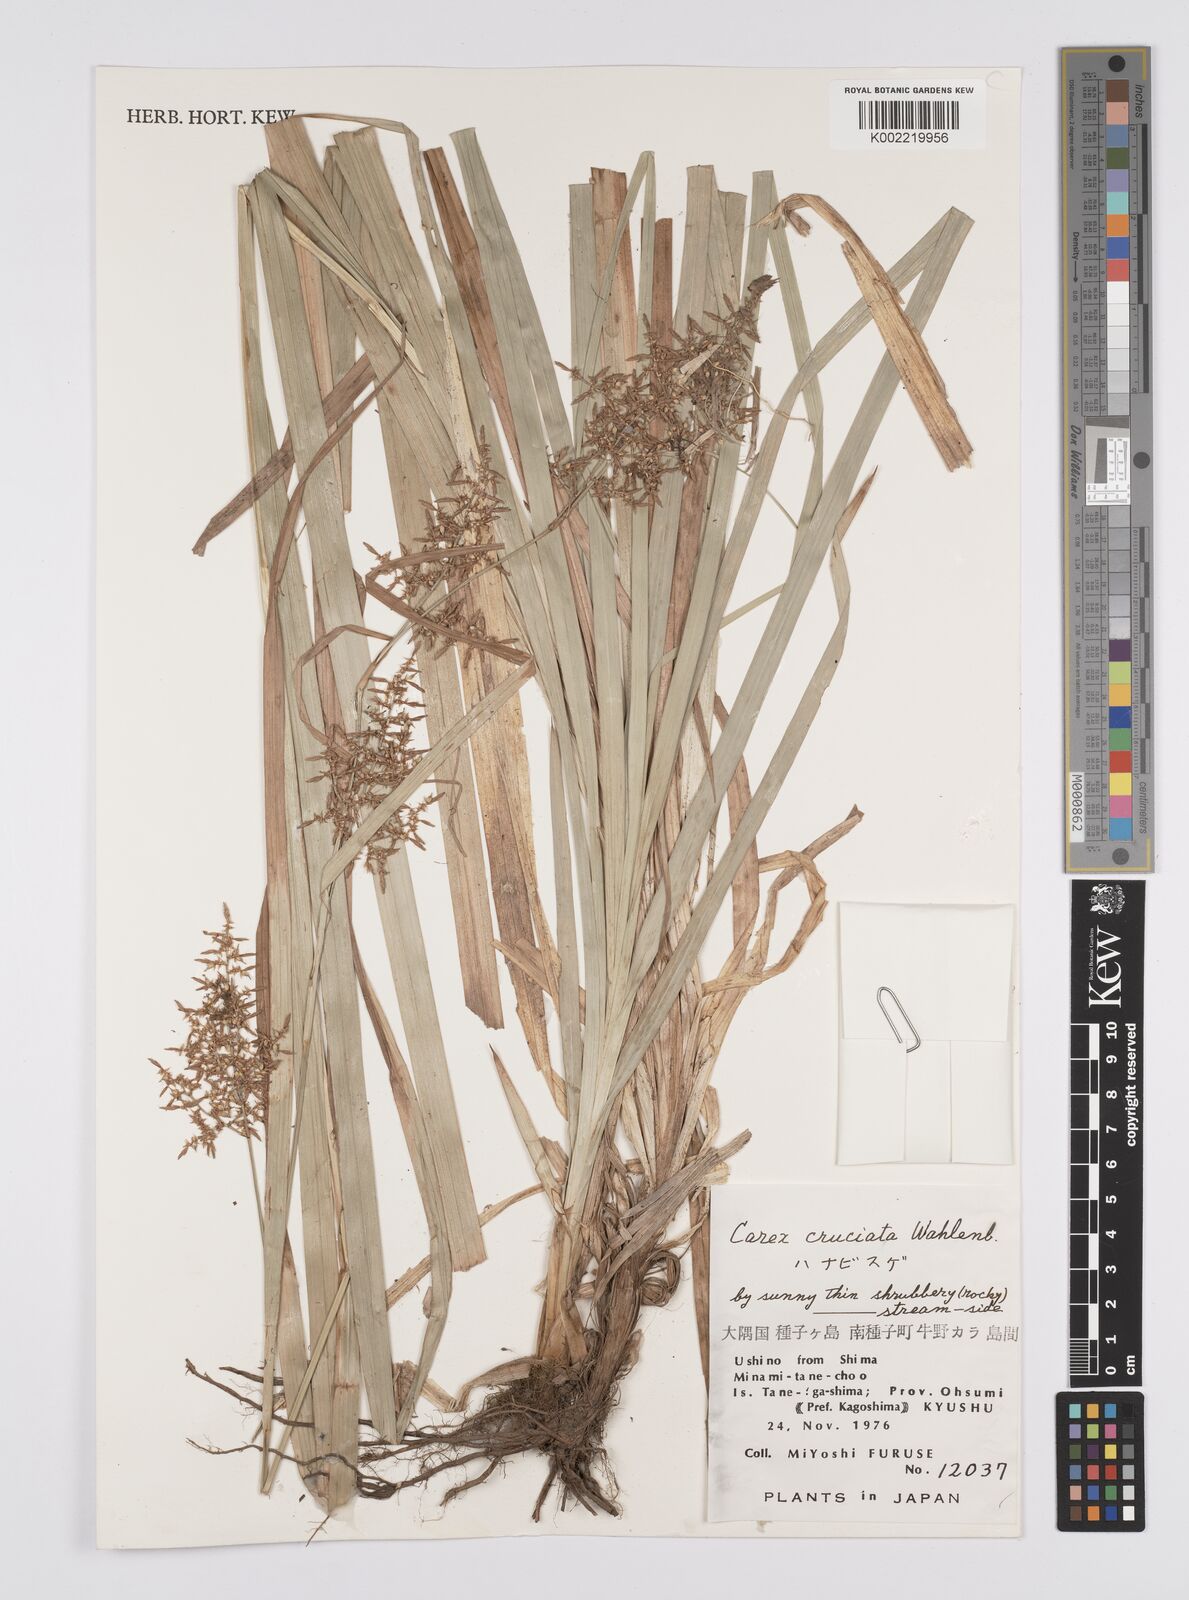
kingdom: Plantae
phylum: Tracheophyta
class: Liliopsida
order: Poales
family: Cyperaceae
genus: Carex
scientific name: Carex cruciata
